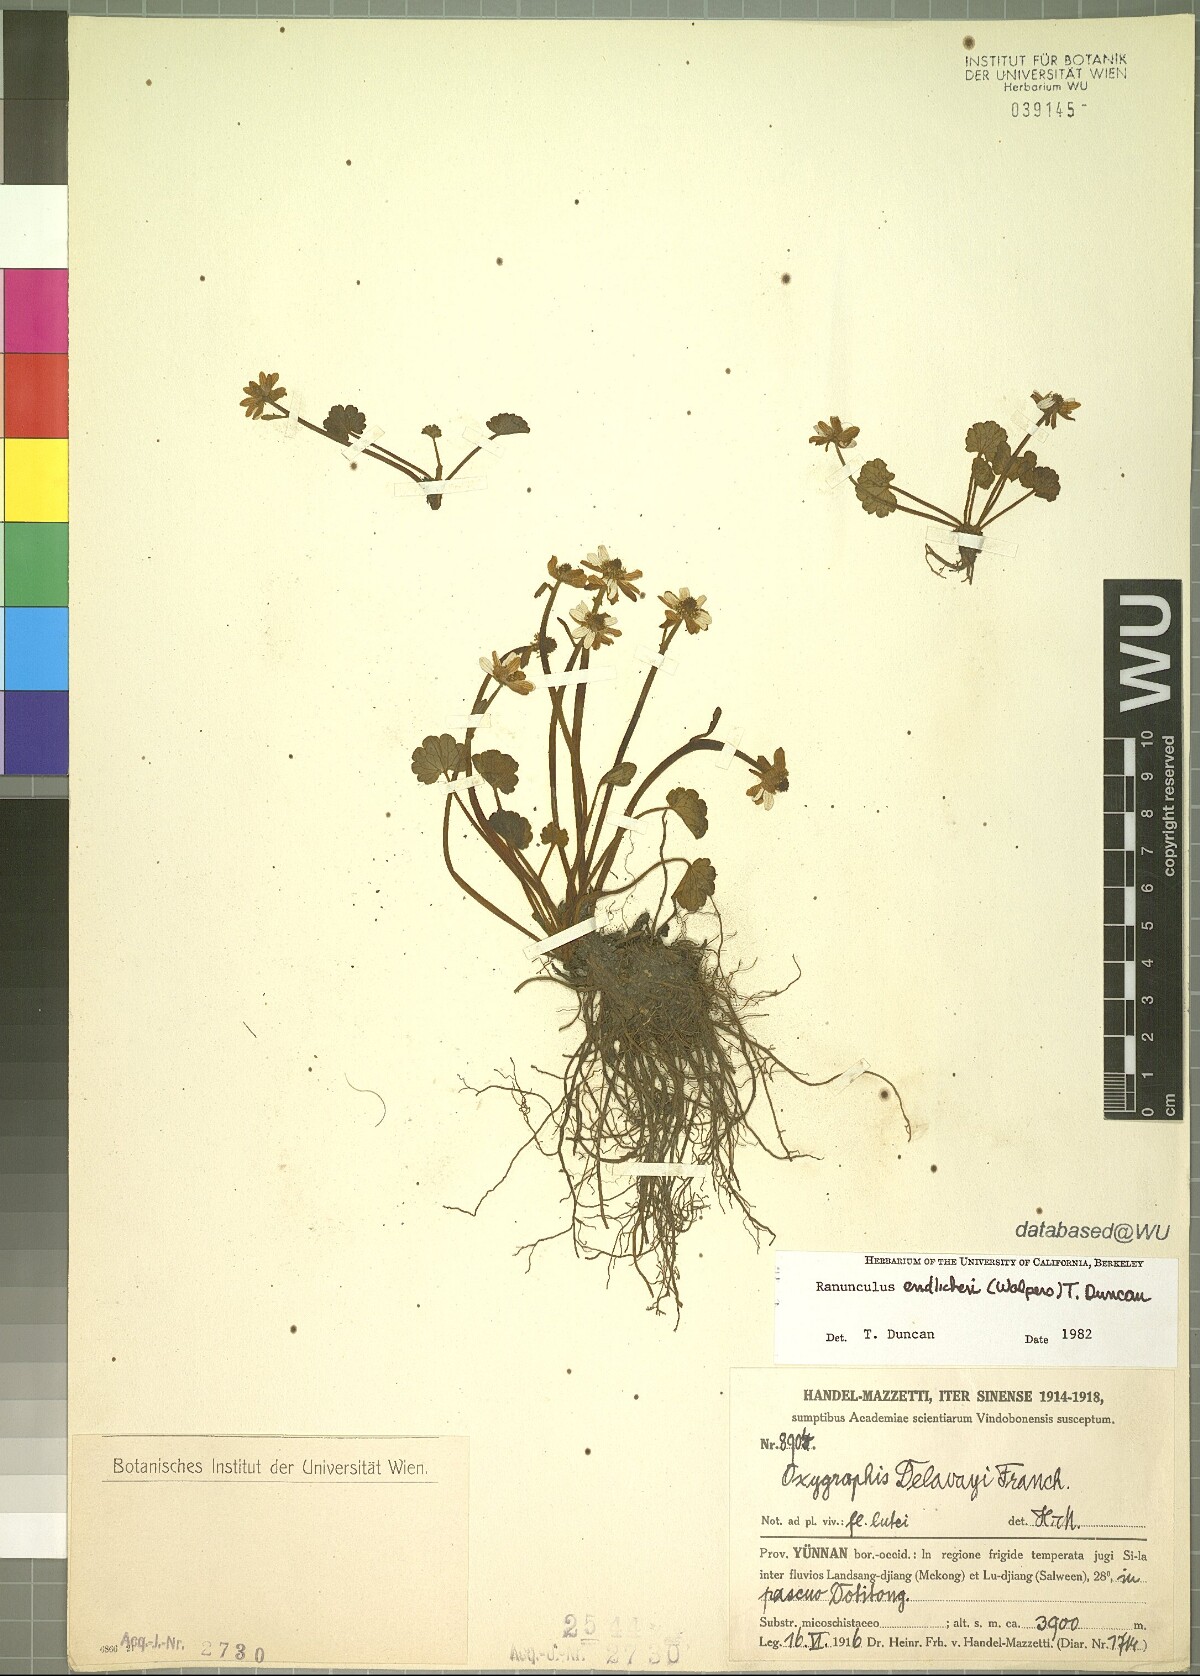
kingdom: Plantae
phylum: Tracheophyta
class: Magnoliopsida
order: Ranunculales
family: Ranunculaceae
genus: Oxygraphis
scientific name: Oxygraphis delavayi
